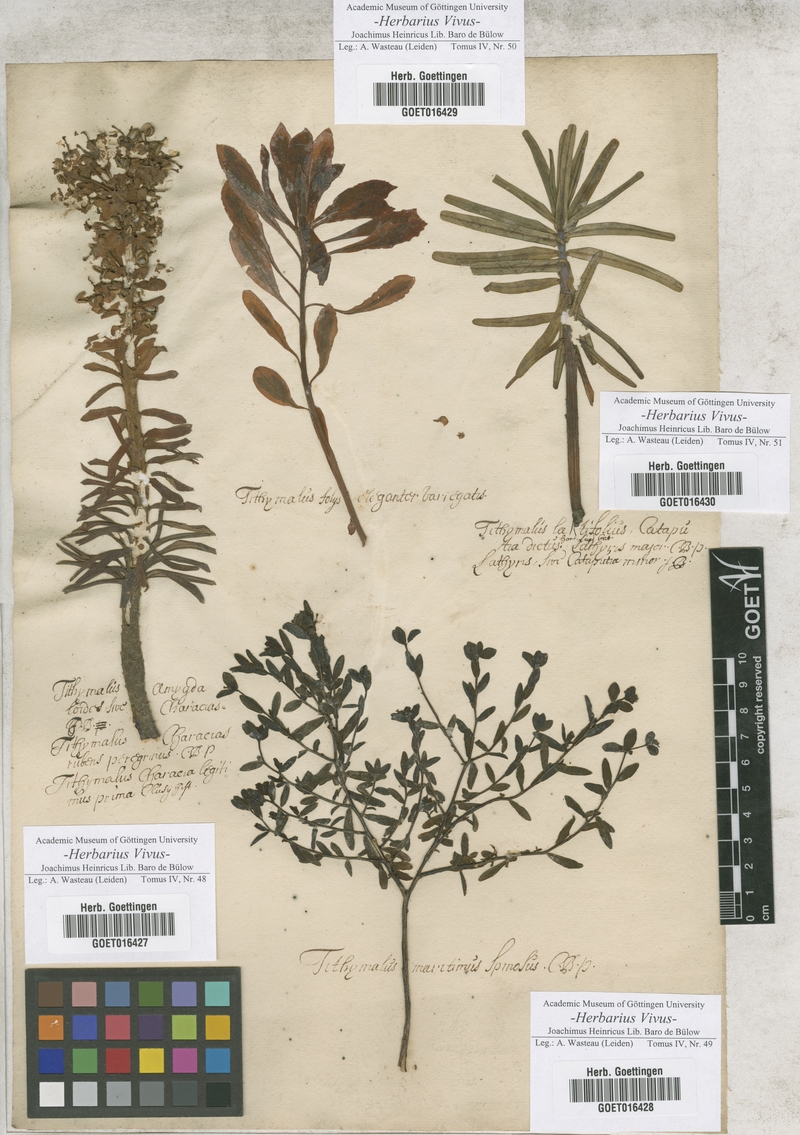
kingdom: Plantae
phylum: Tracheophyta
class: Magnoliopsida
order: Malpighiales
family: Euphorbiaceae
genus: Euphorbia
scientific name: Euphorbia amygdaloides
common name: Wood spurge
